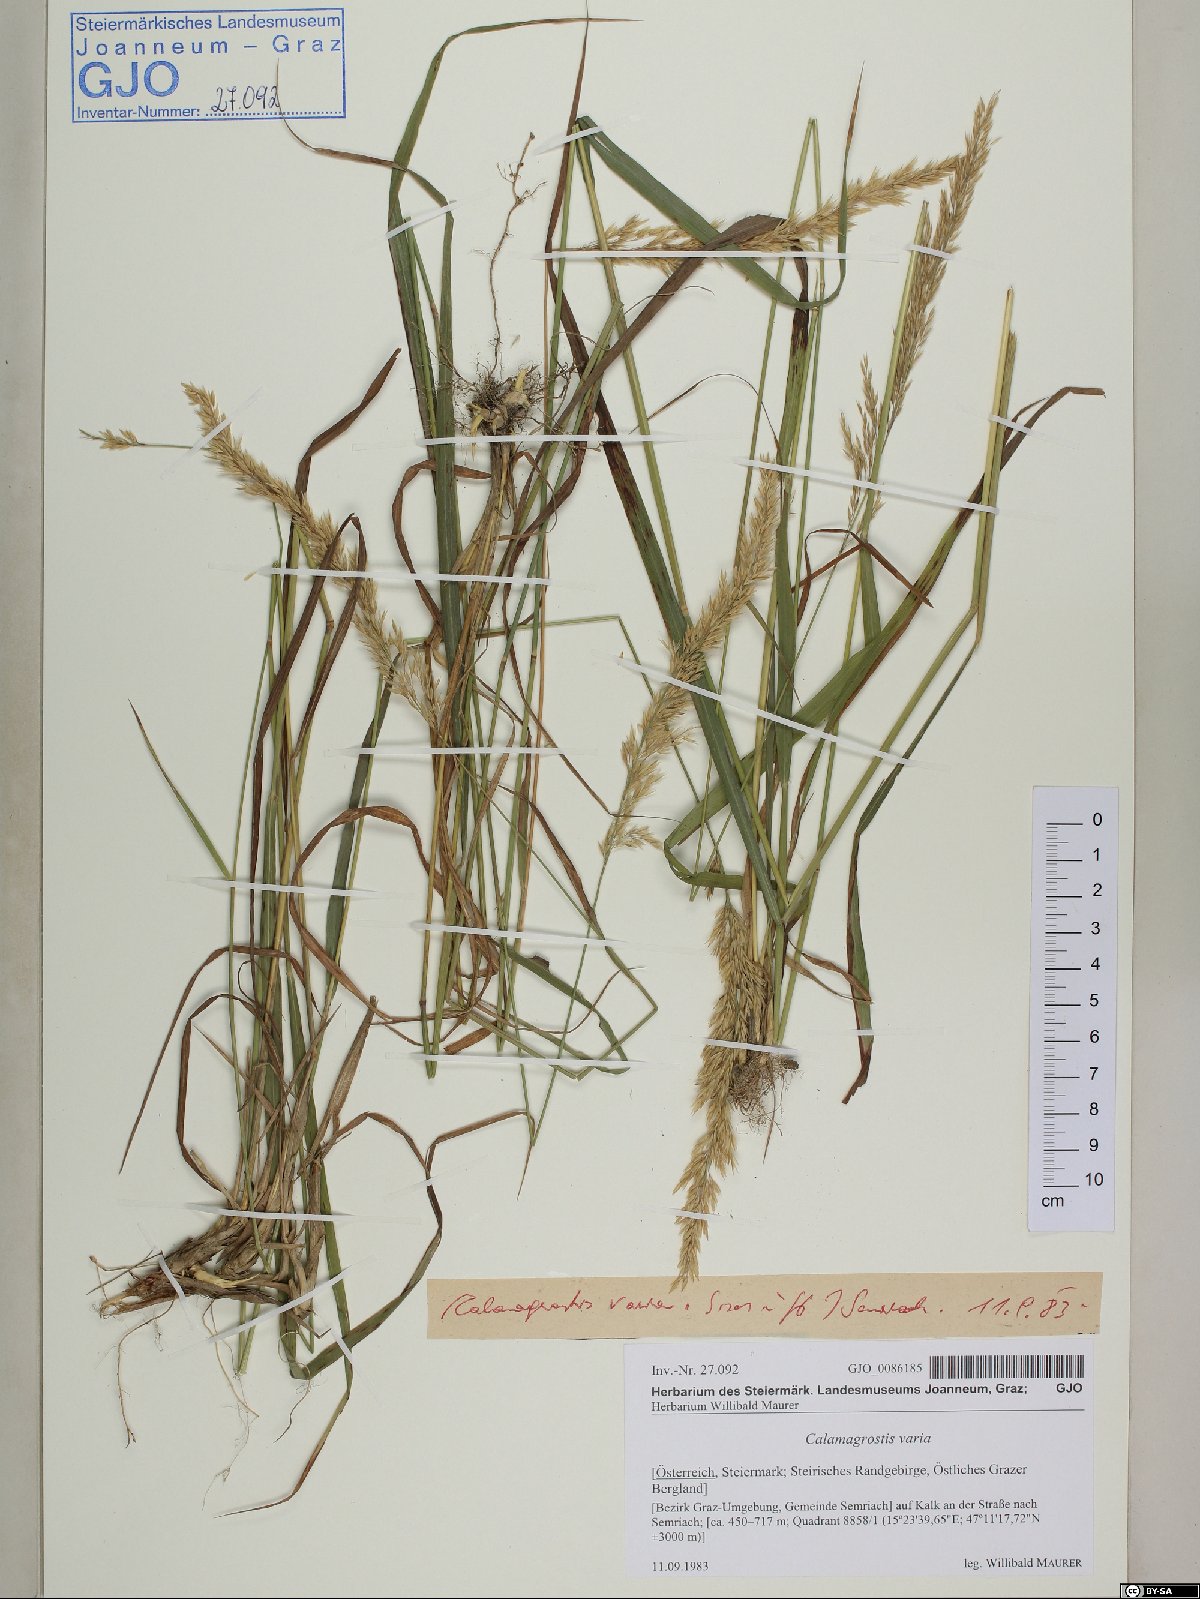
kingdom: Plantae
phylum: Tracheophyta
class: Liliopsida
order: Poales
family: Poaceae
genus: Calamagrostis
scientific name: Calamagrostis varia
